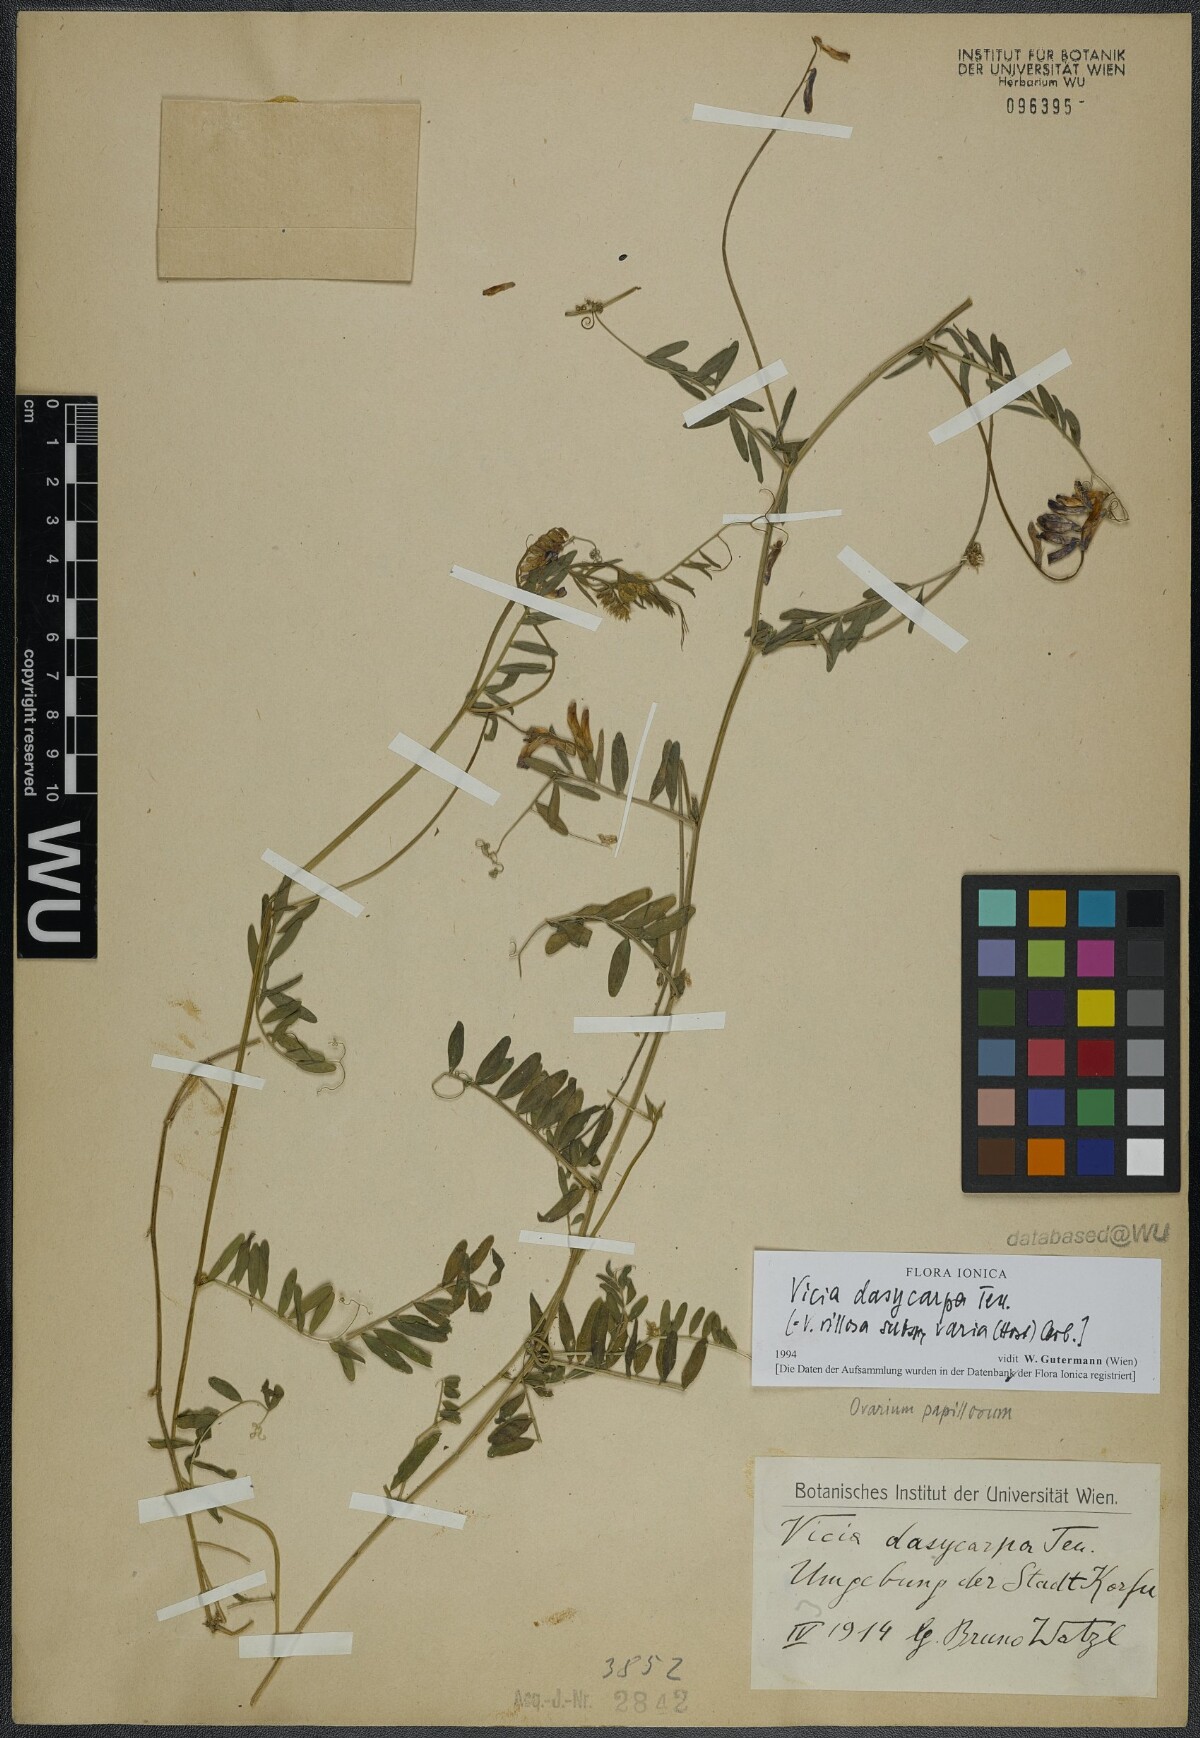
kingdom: Plantae
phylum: Tracheophyta
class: Magnoliopsida
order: Fabales
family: Fabaceae
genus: Vicia
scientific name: Vicia villosa
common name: Fodder vetch
